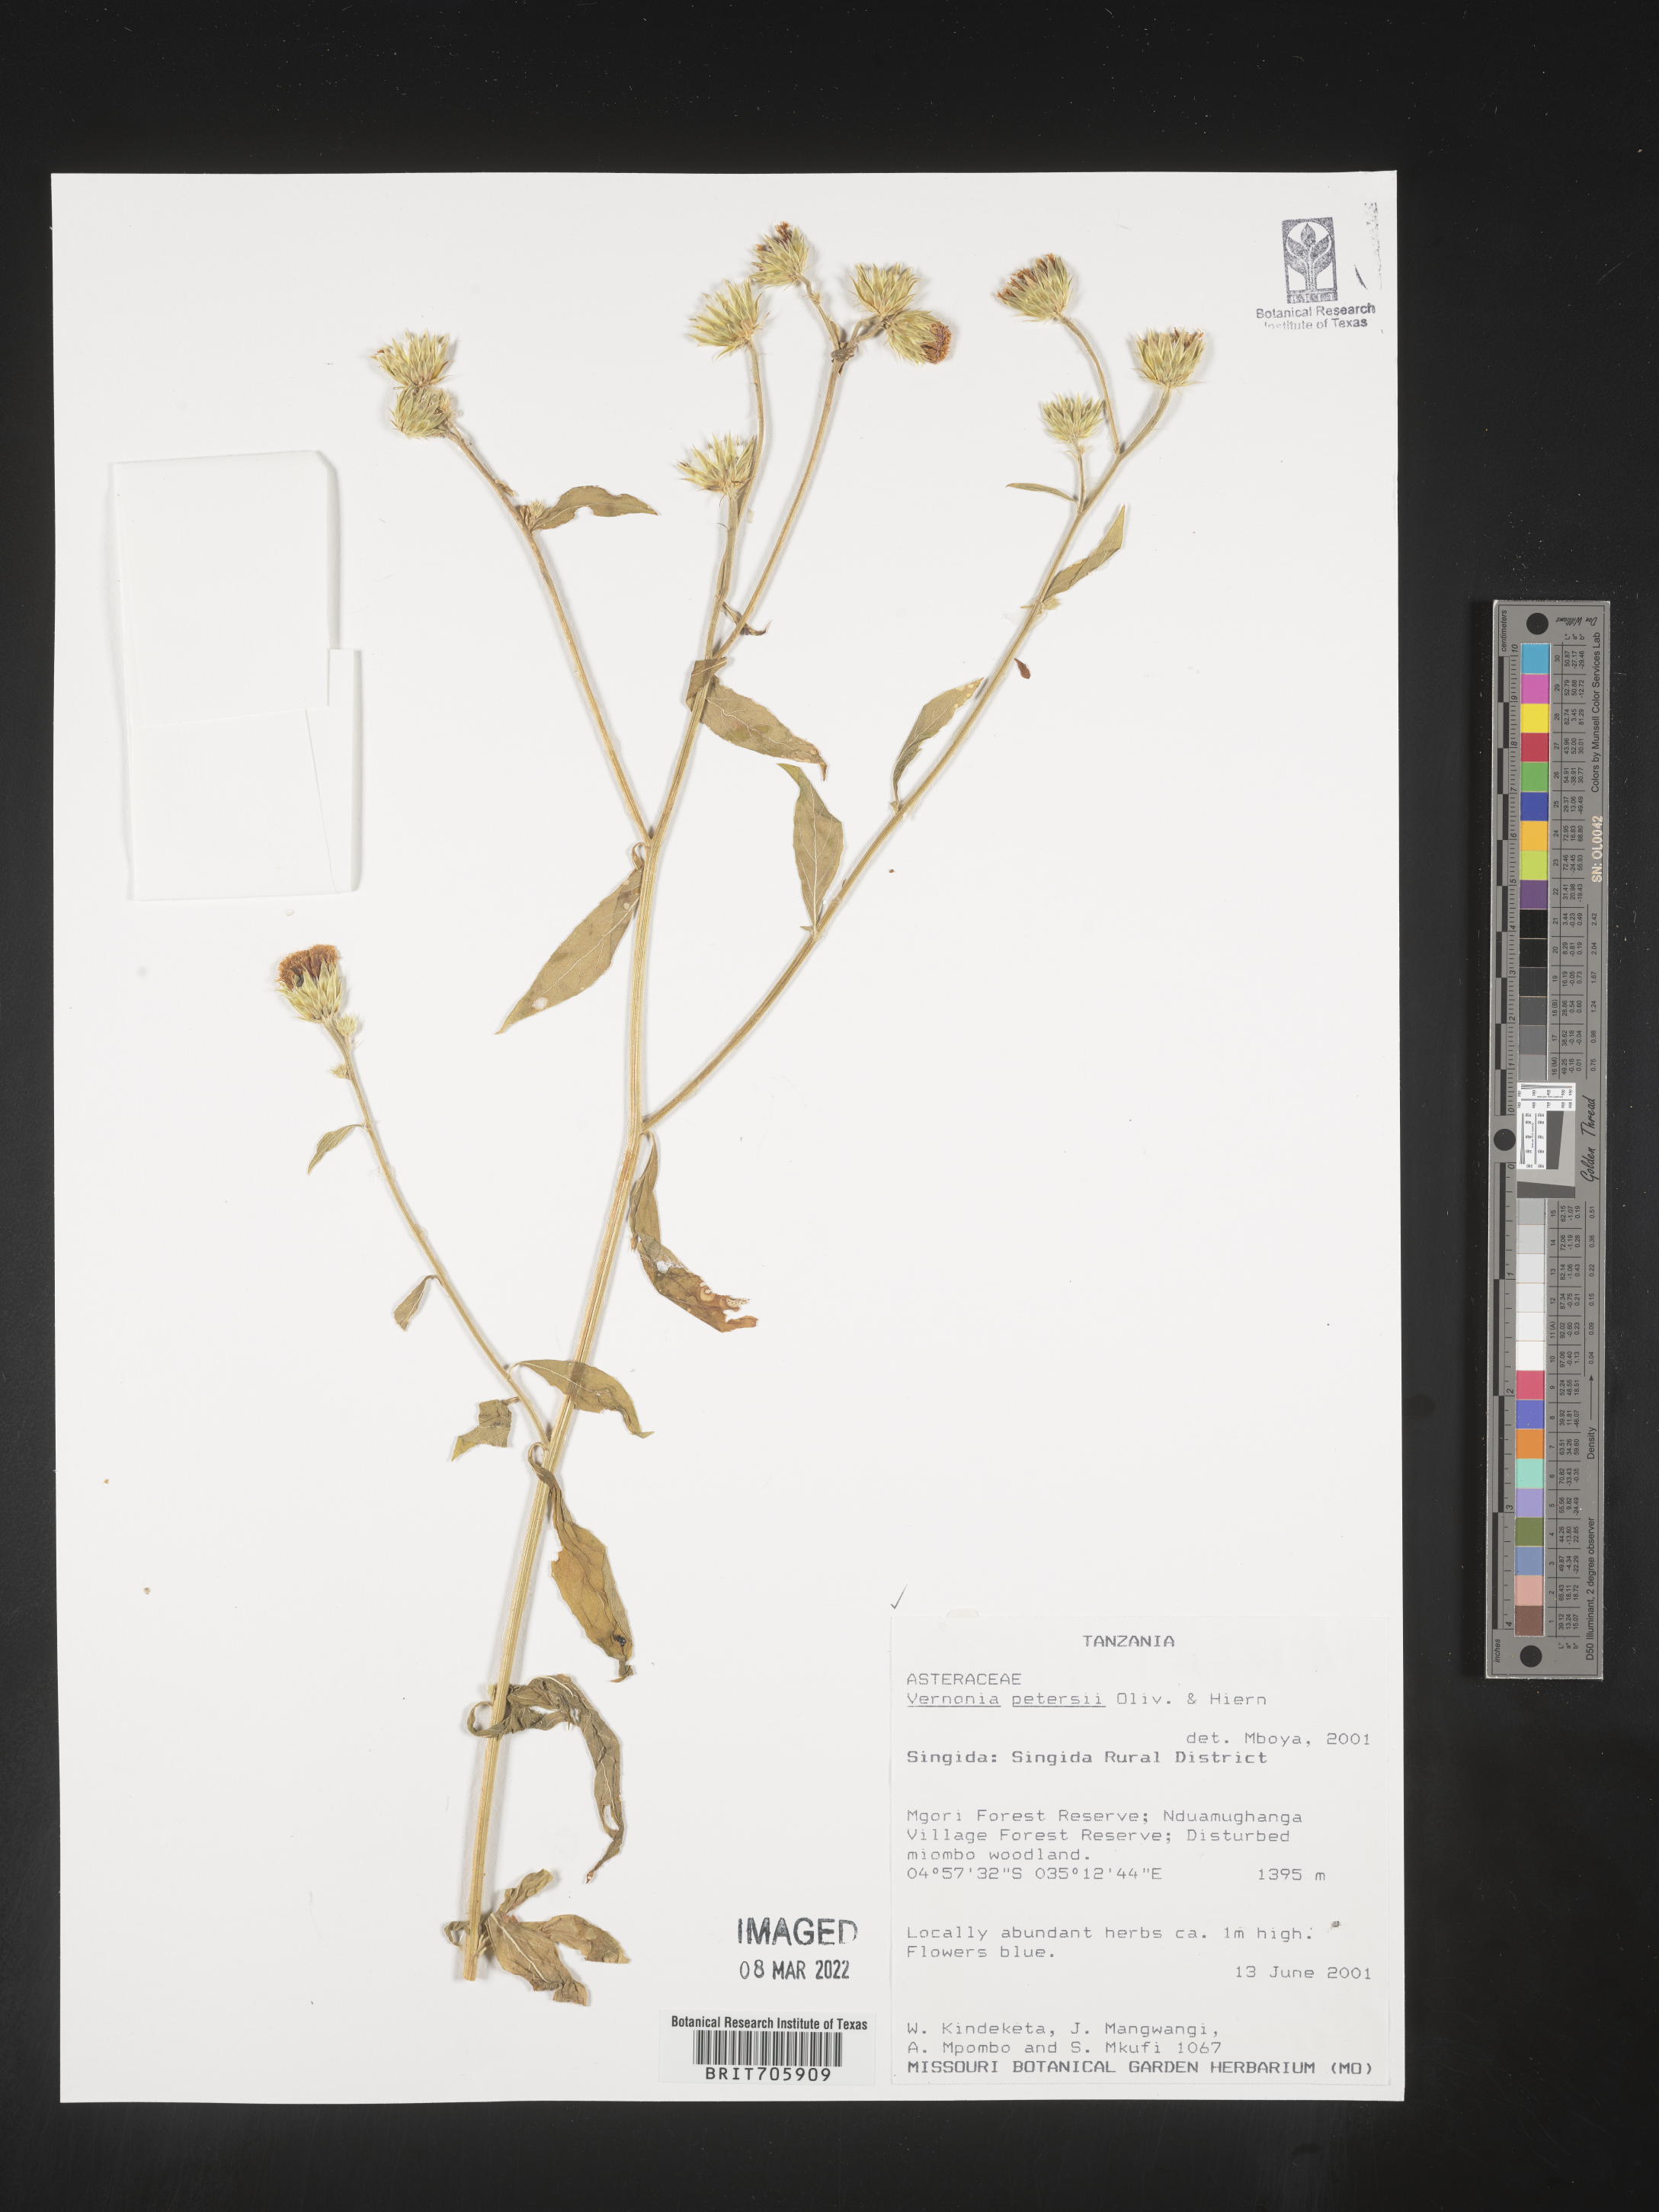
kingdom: Plantae
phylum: Tracheophyta
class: Magnoliopsida
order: Asterales
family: Asteraceae
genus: Vernonia
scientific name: Vernonia
